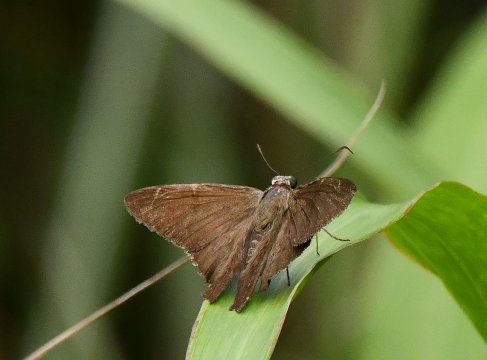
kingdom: Animalia
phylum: Arthropoda
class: Insecta
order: Lepidoptera
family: Hesperiidae
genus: Urbanus
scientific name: Urbanus procne
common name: Brown Longtail
